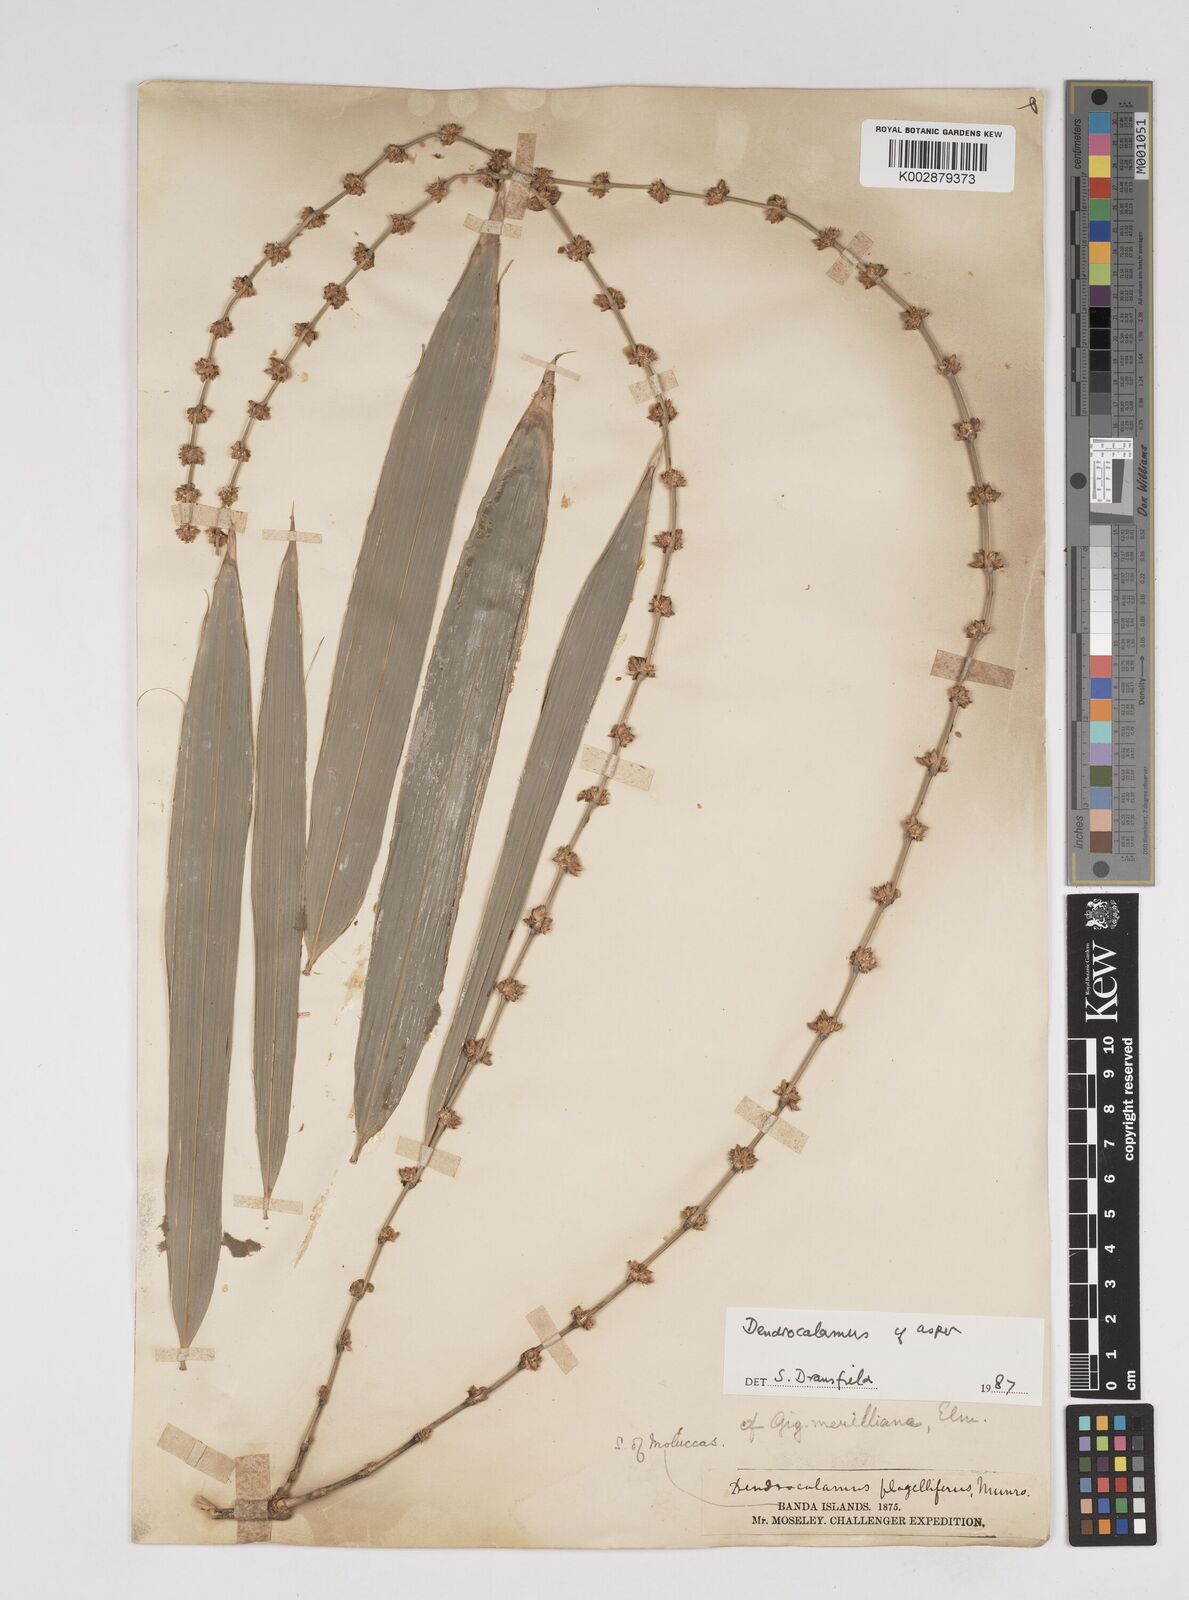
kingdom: Plantae
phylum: Tracheophyta
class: Liliopsida
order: Poales
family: Poaceae
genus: Dendrocalamus
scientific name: Dendrocalamus asper
